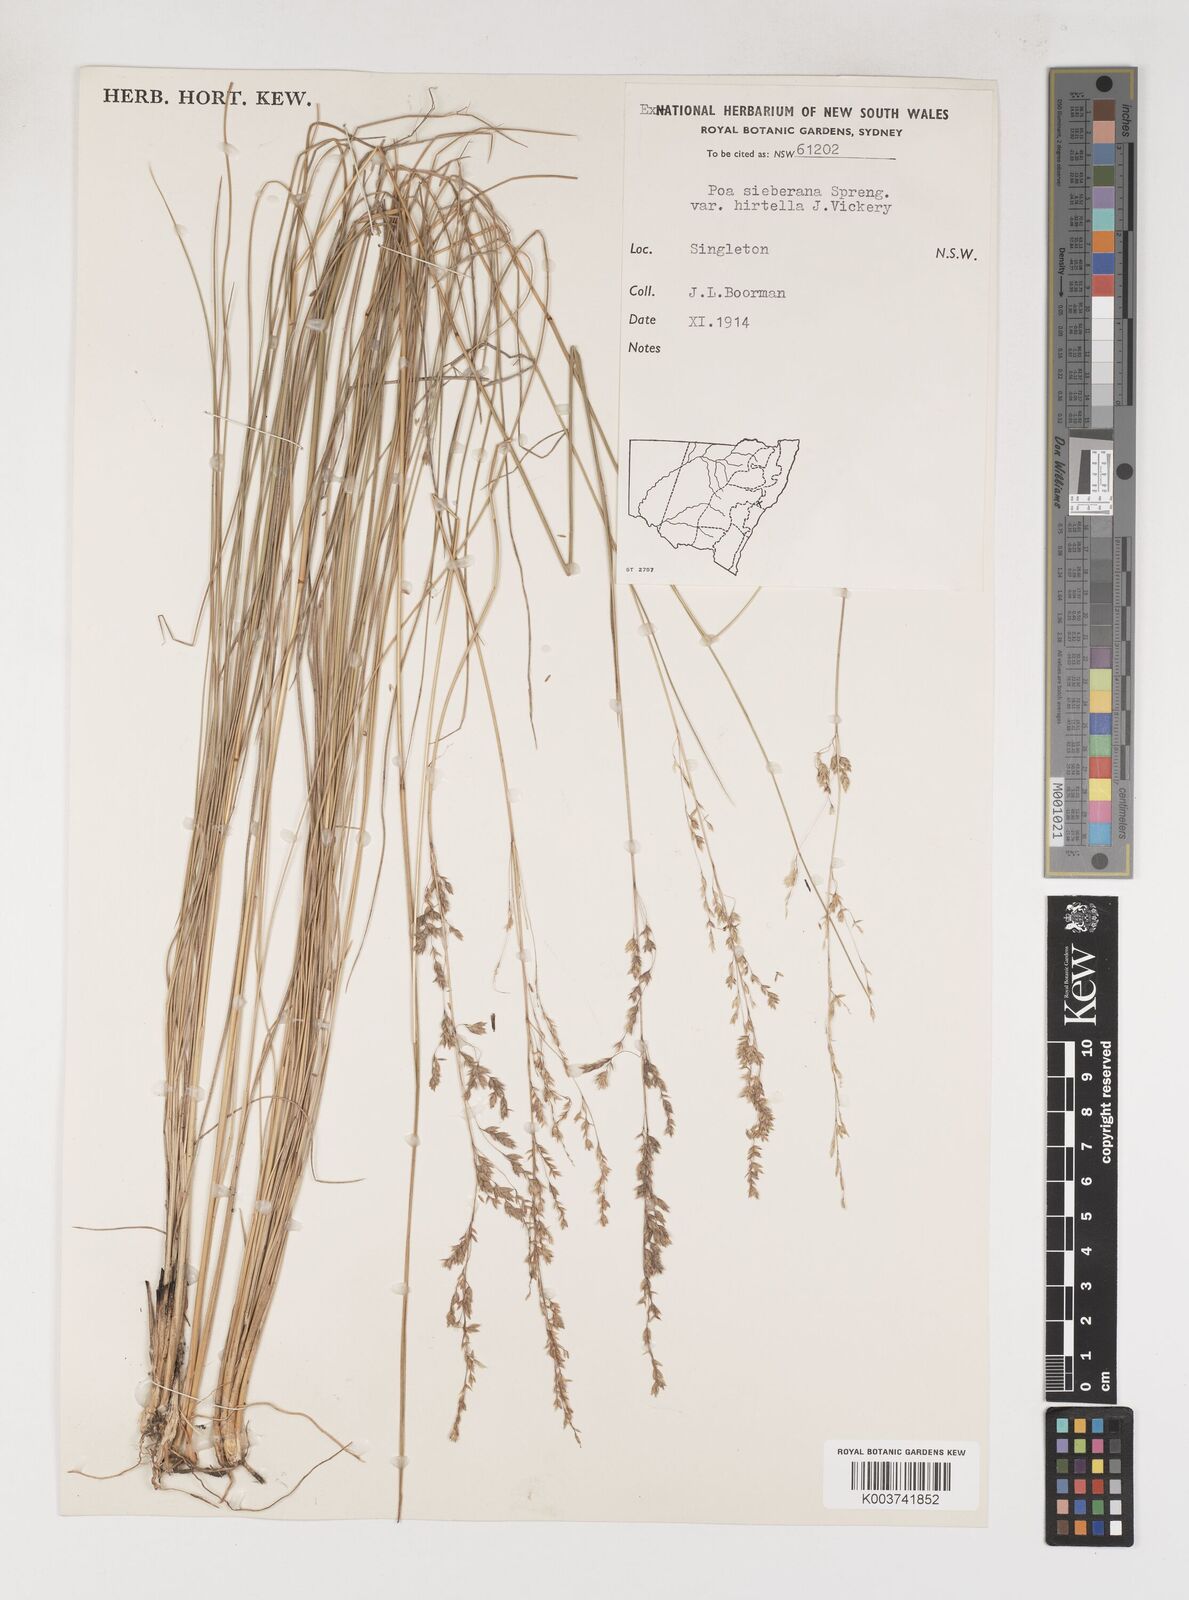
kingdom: Plantae
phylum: Tracheophyta
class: Liliopsida
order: Poales
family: Poaceae
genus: Poa
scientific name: Poa sieberiana
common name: Tussock poa
